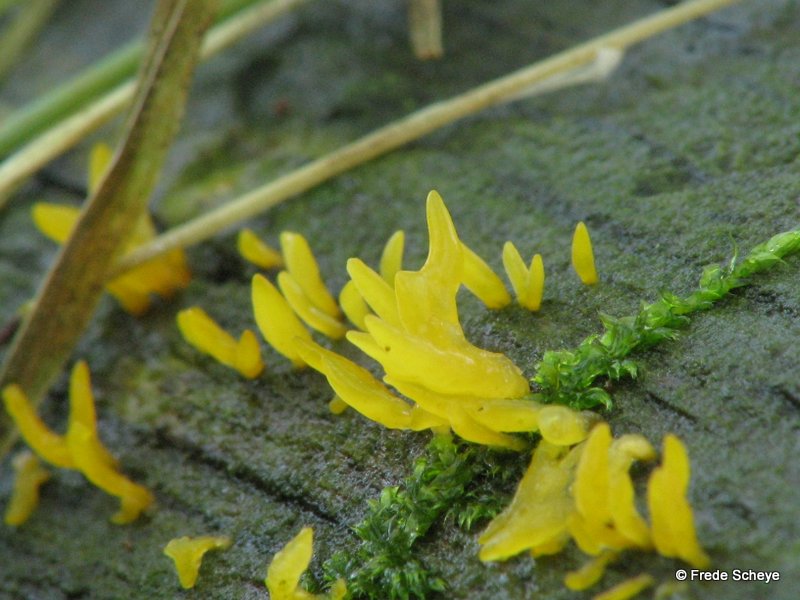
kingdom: Fungi
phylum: Basidiomycota
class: Dacrymycetes
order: Dacrymycetales
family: Dacrymycetaceae
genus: Calocera
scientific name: Calocera cornea
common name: liden guldgaffel
